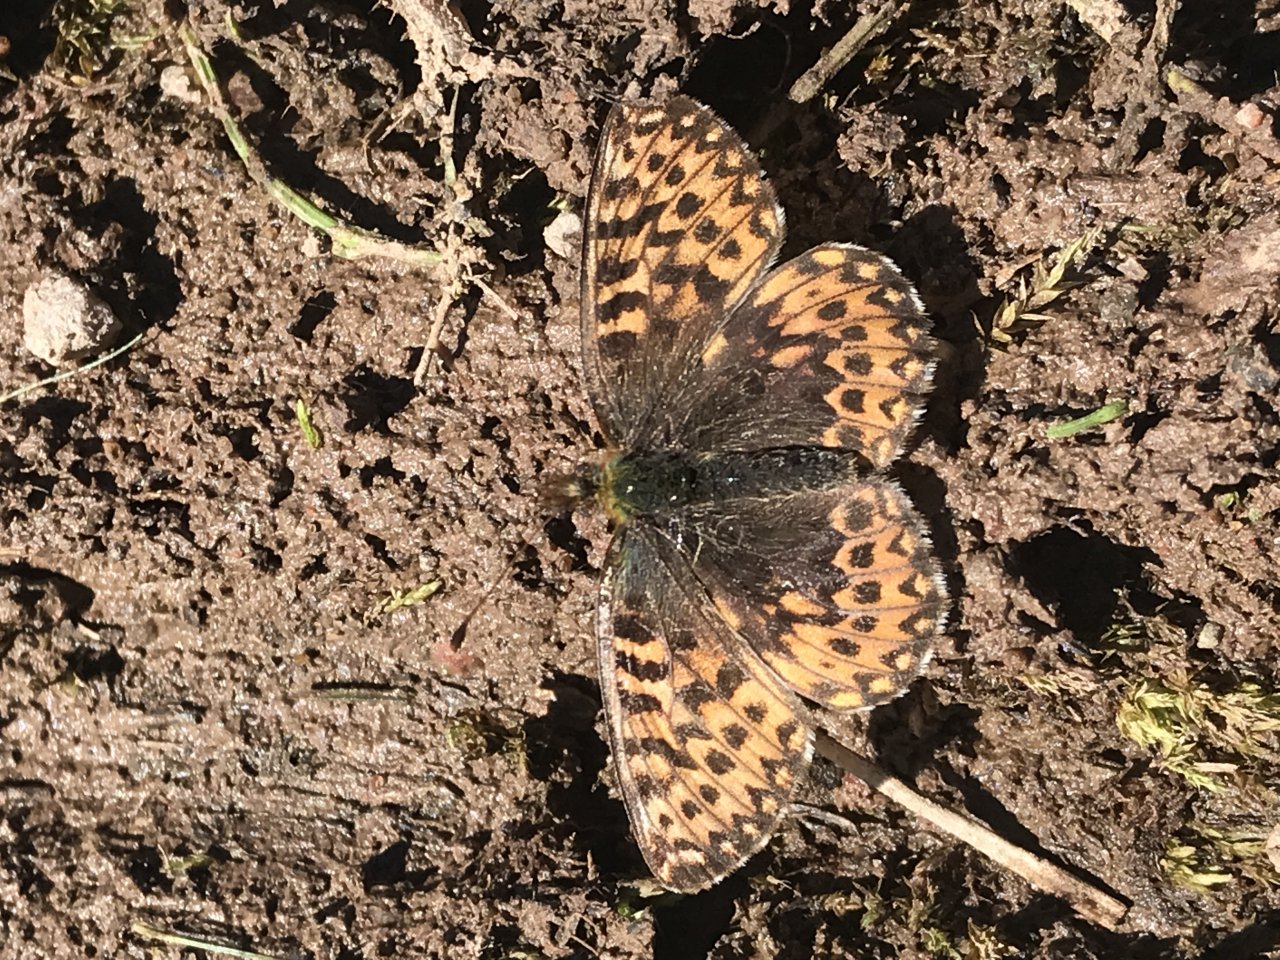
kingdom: Animalia
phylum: Arthropoda
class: Insecta
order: Lepidoptera
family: Nymphalidae
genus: Boloria
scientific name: Boloria freija
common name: Freija Fritillary
